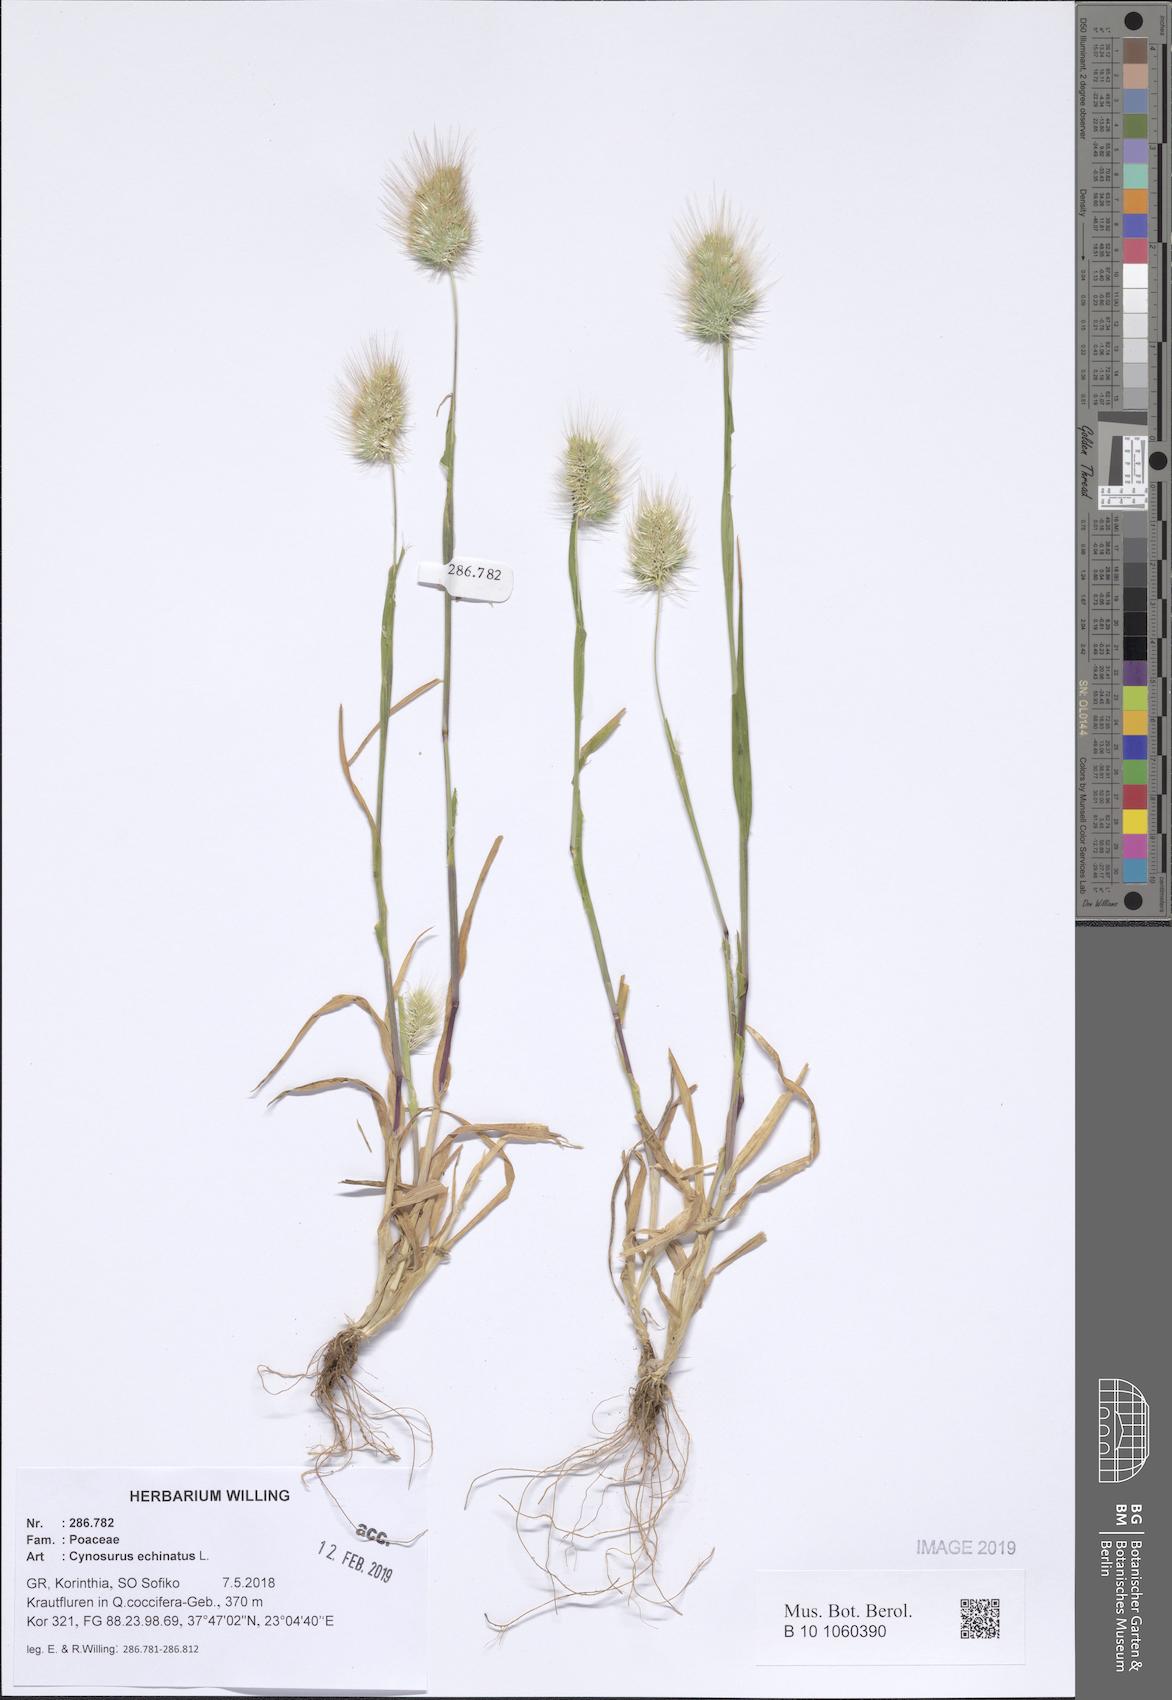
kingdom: Plantae
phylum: Tracheophyta
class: Liliopsida
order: Poales
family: Poaceae
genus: Cynosurus
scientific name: Cynosurus echinatus
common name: Rough dog's-tail
